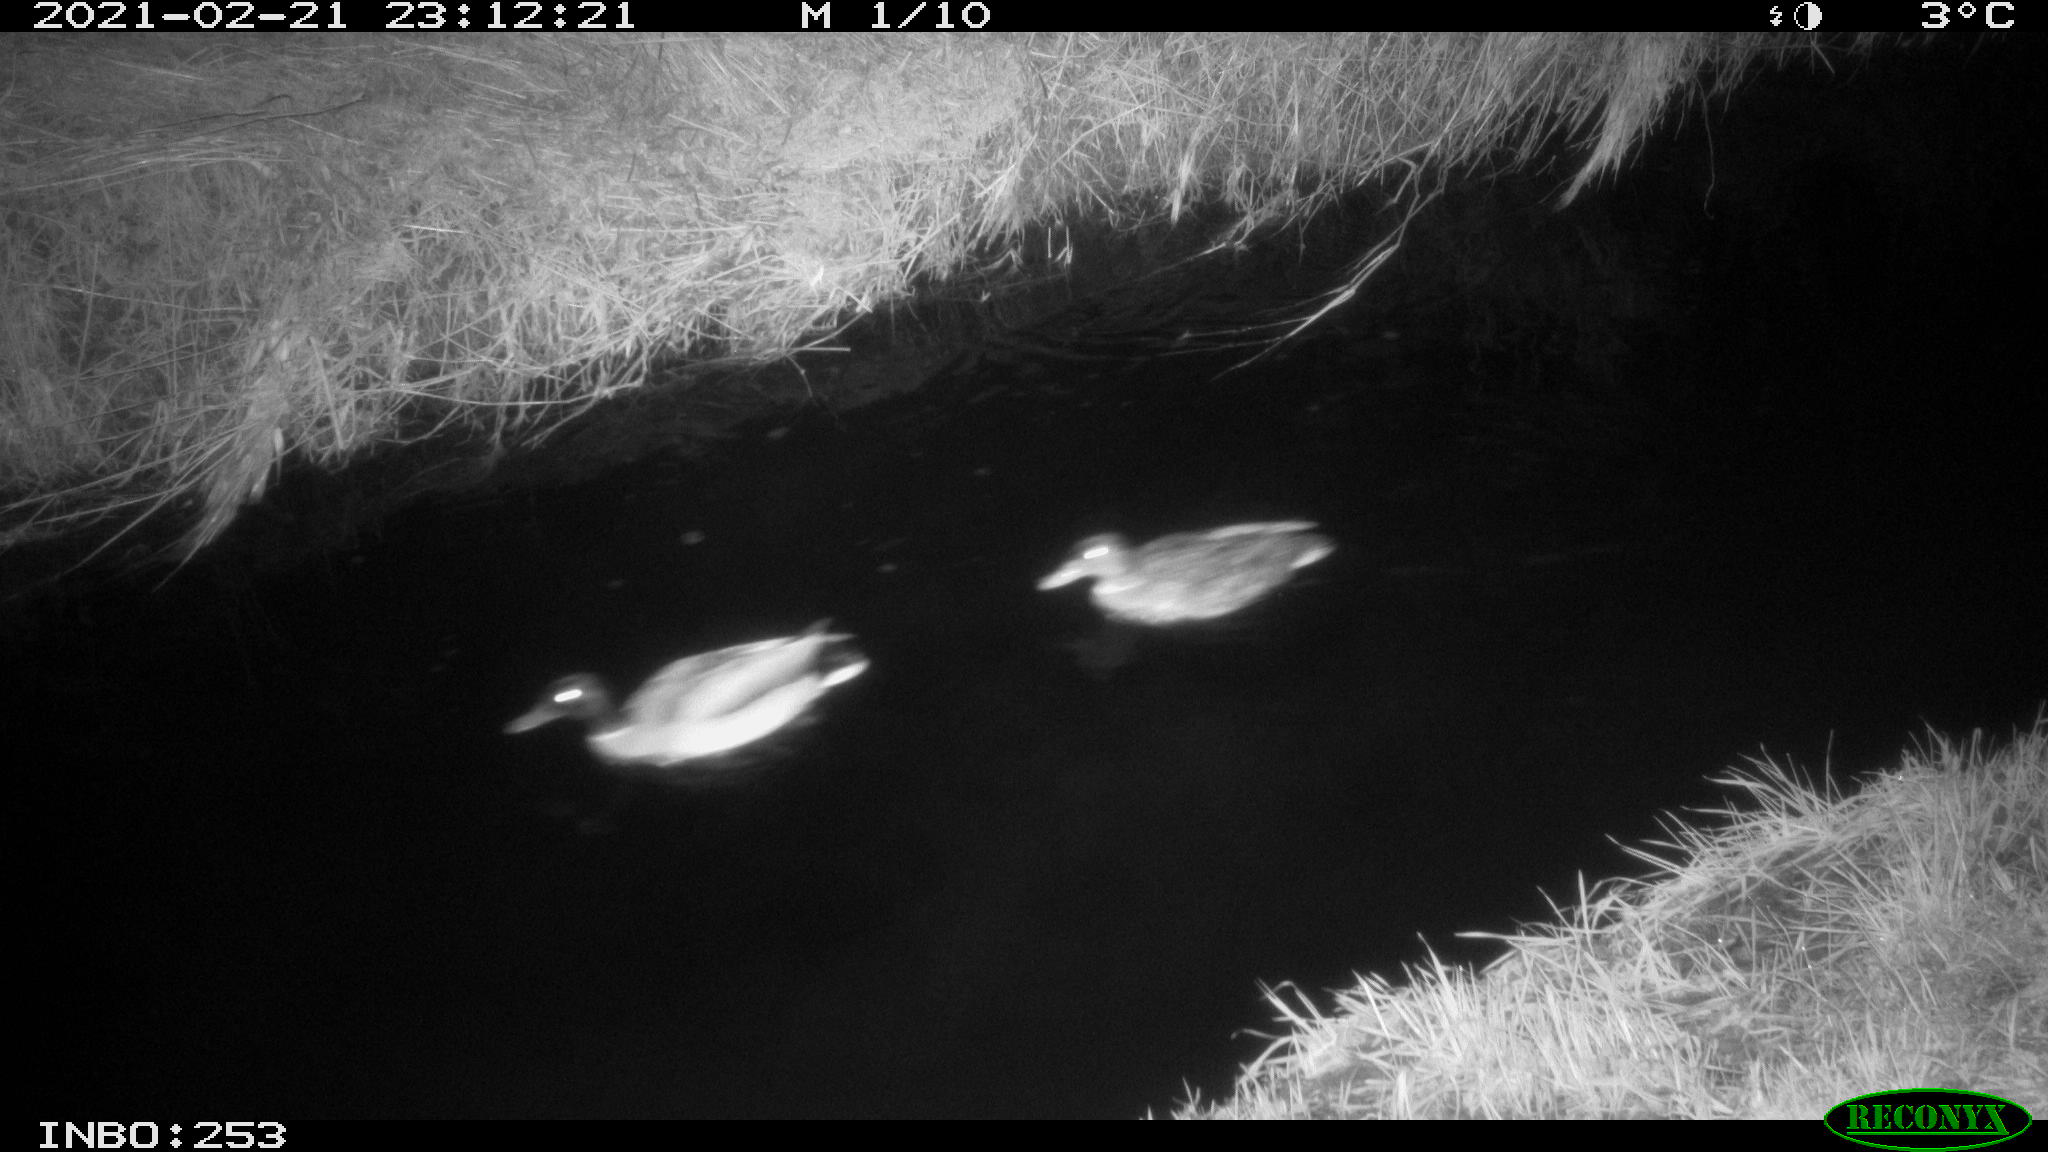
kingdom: Animalia
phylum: Chordata
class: Aves
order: Anseriformes
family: Anatidae
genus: Anas
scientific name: Anas platyrhynchos
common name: Mallard
